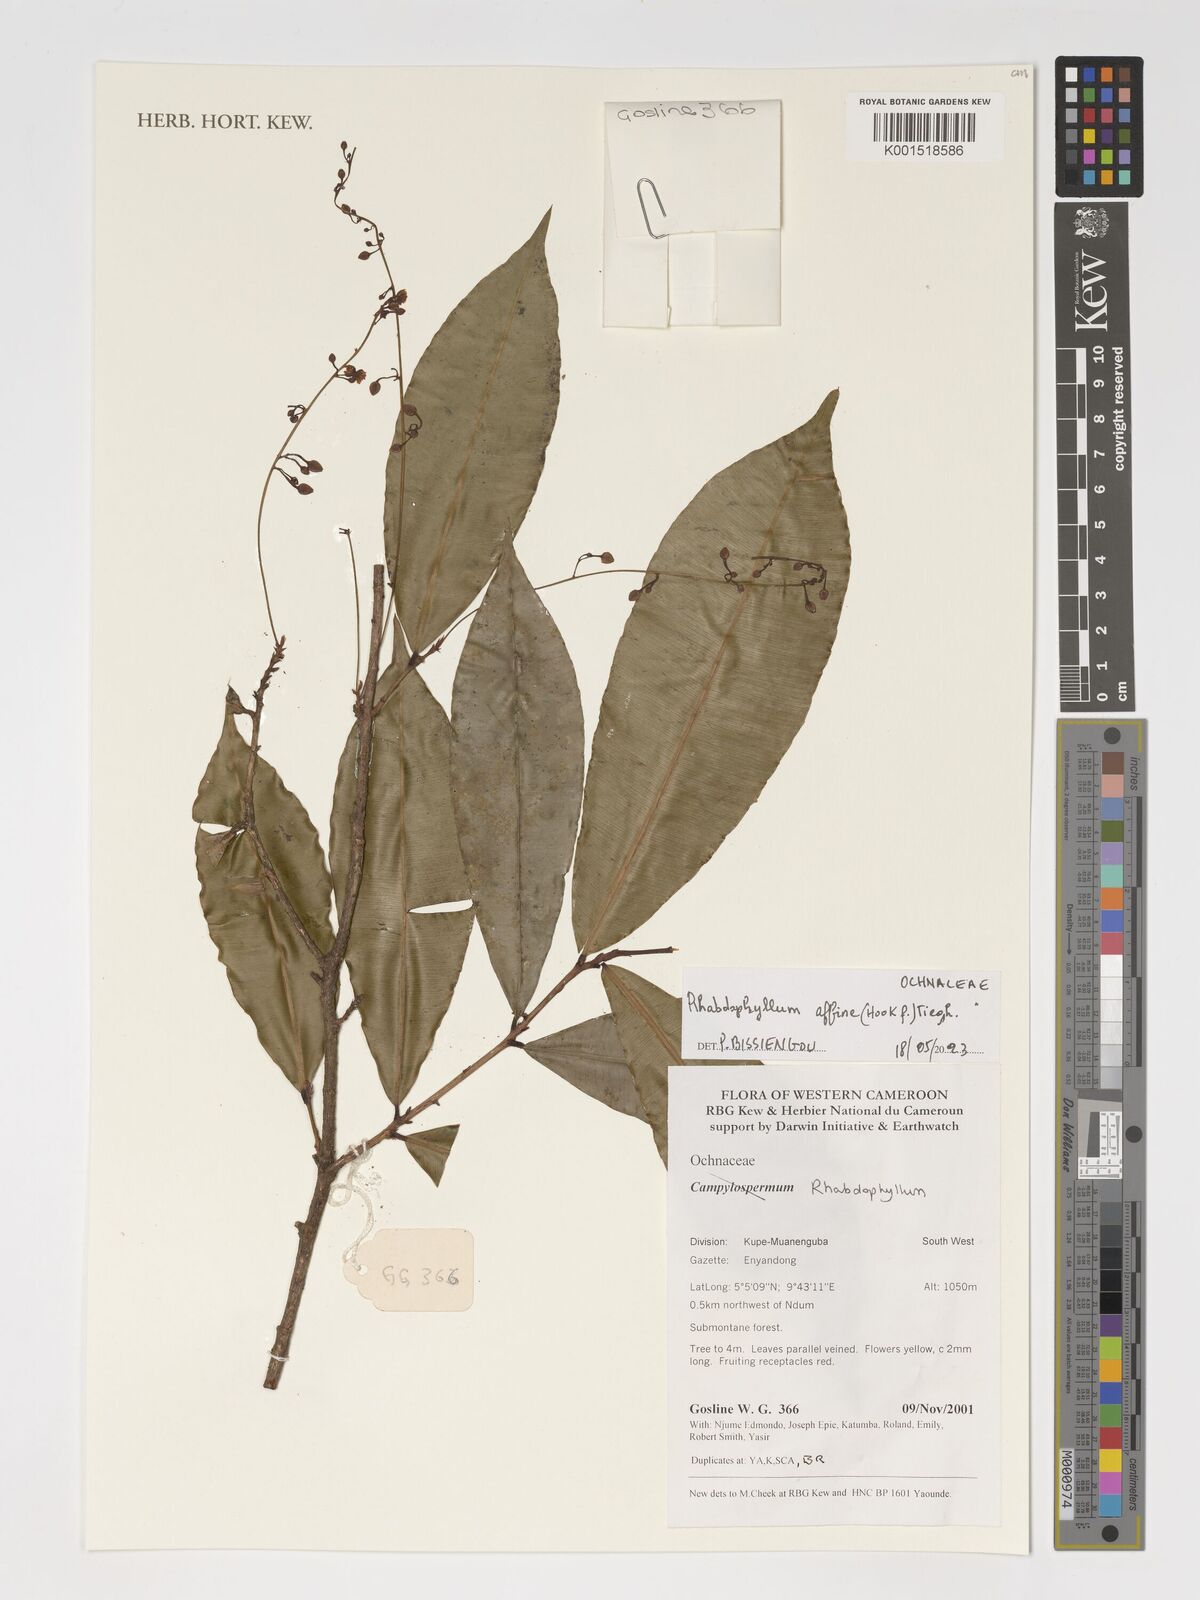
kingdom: Plantae
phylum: Tracheophyta
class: Magnoliopsida
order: Malpighiales
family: Ochnaceae
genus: Rhabdophyllum
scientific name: Rhabdophyllum affine
